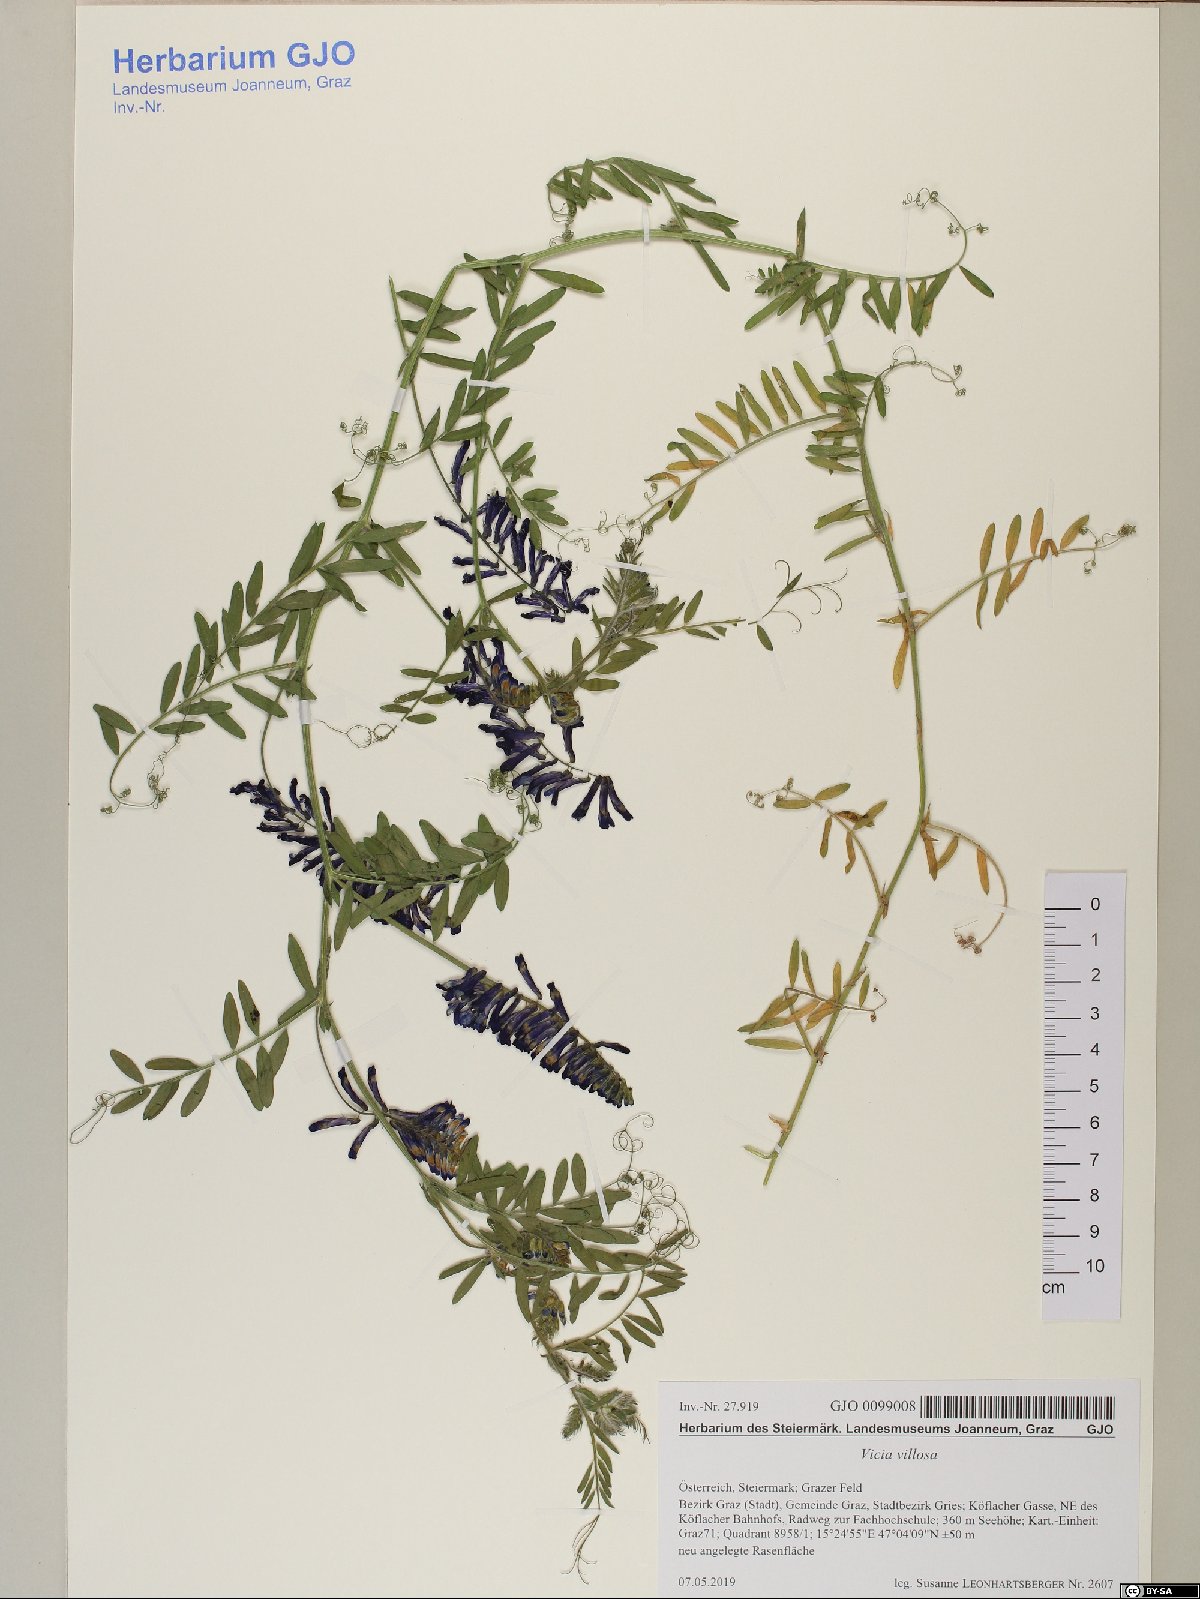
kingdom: Plantae
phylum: Tracheophyta
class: Magnoliopsida
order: Fabales
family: Fabaceae
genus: Vicia
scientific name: Vicia villosa
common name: Fodder vetch
